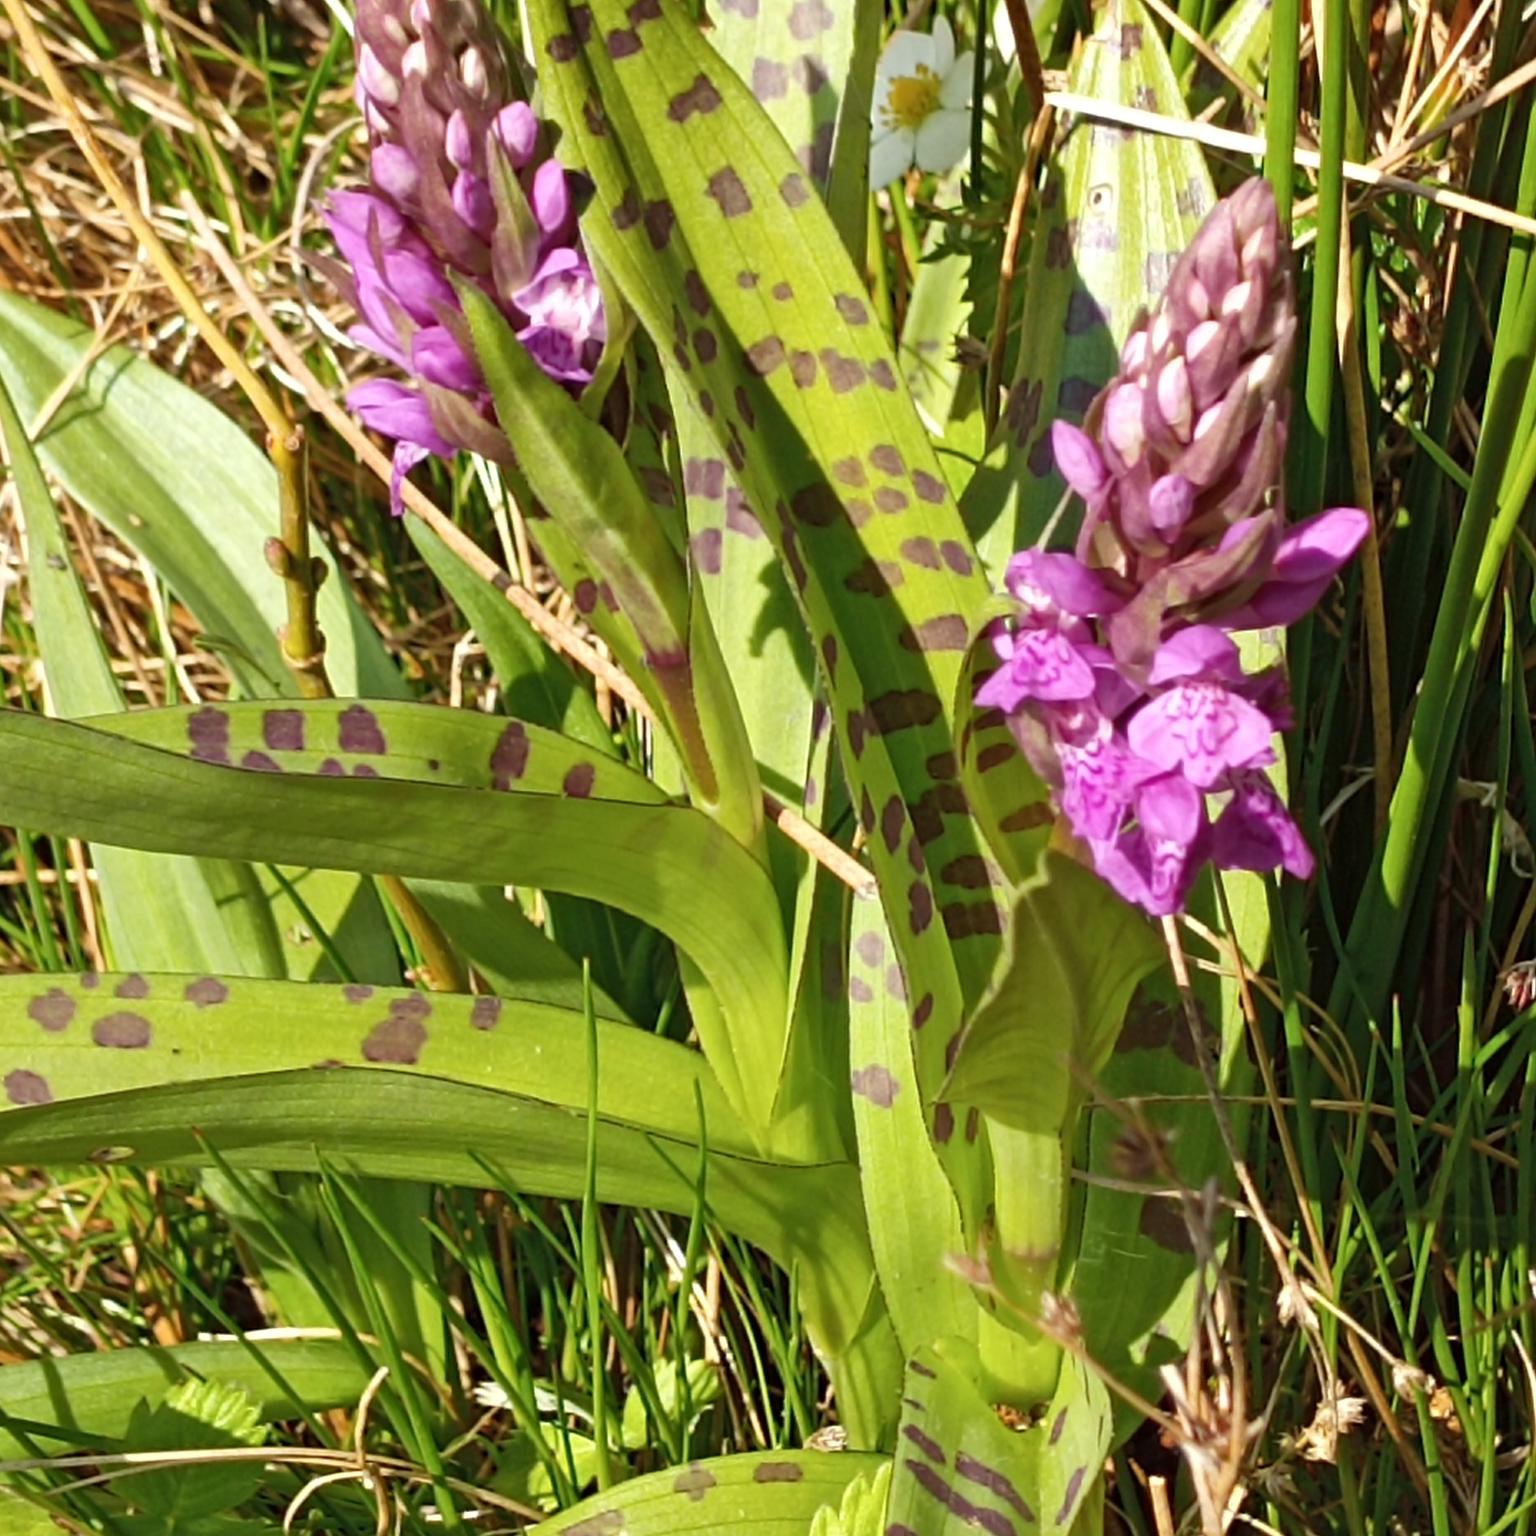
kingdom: Plantae
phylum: Tracheophyta
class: Liliopsida
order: Asparagales
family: Orchidaceae
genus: Dactylorhiza
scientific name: Dactylorhiza majalis
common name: Maj-gøgeurt
